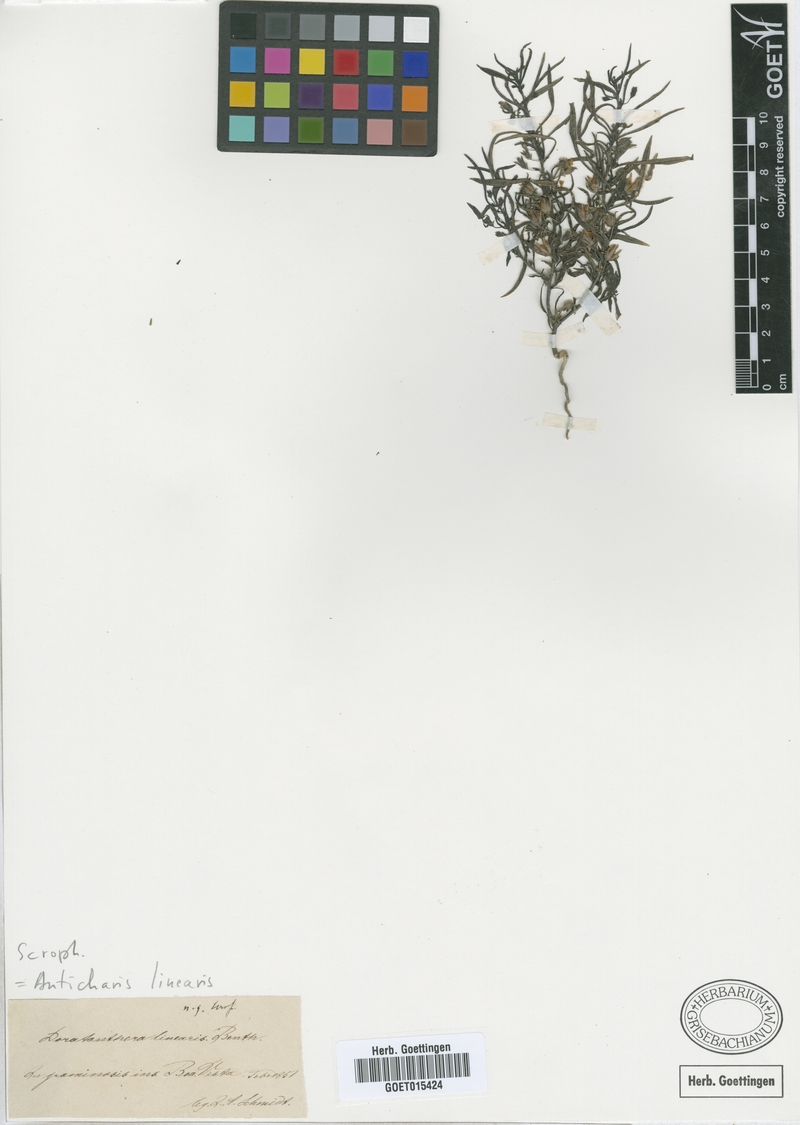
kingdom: Plantae
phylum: Tracheophyta
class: Magnoliopsida
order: Lamiales
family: Scrophulariaceae
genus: Anticharis
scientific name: Anticharis senegalensis
